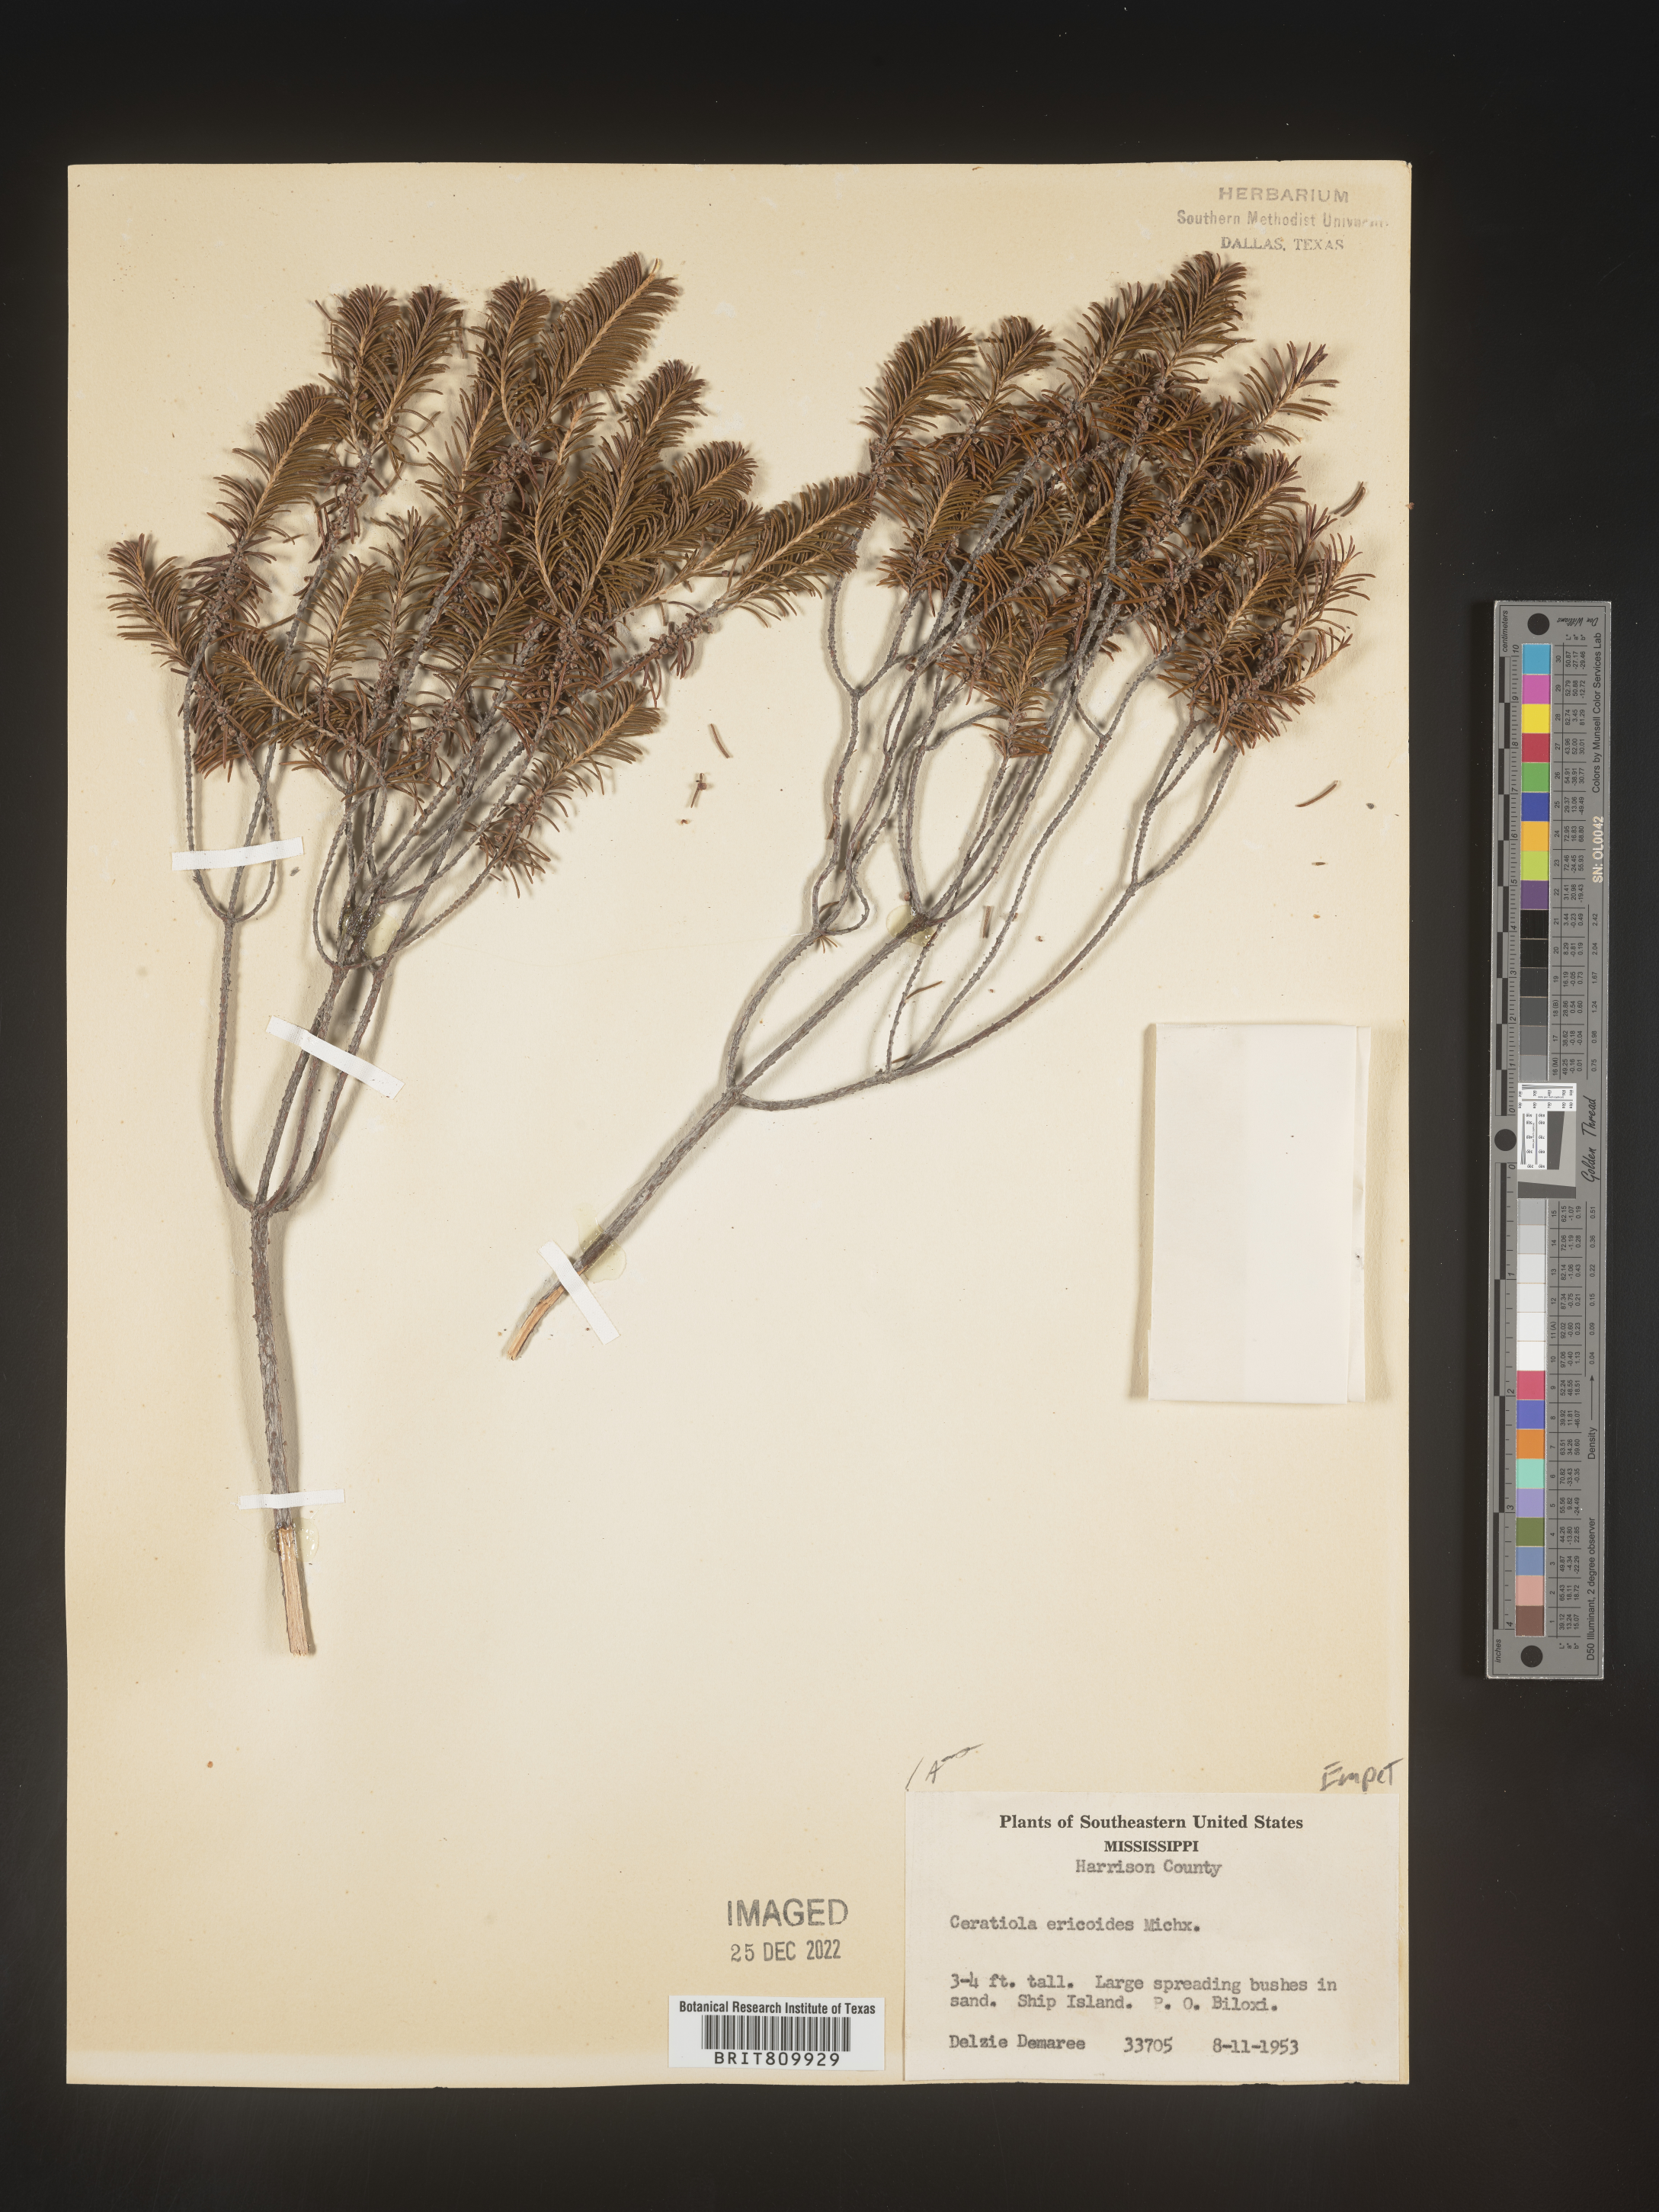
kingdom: Plantae
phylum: Tracheophyta
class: Magnoliopsida
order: Ericales
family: Ericaceae
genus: Ceratiola
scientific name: Ceratiola ericoides
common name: Sandhill-rosemary
